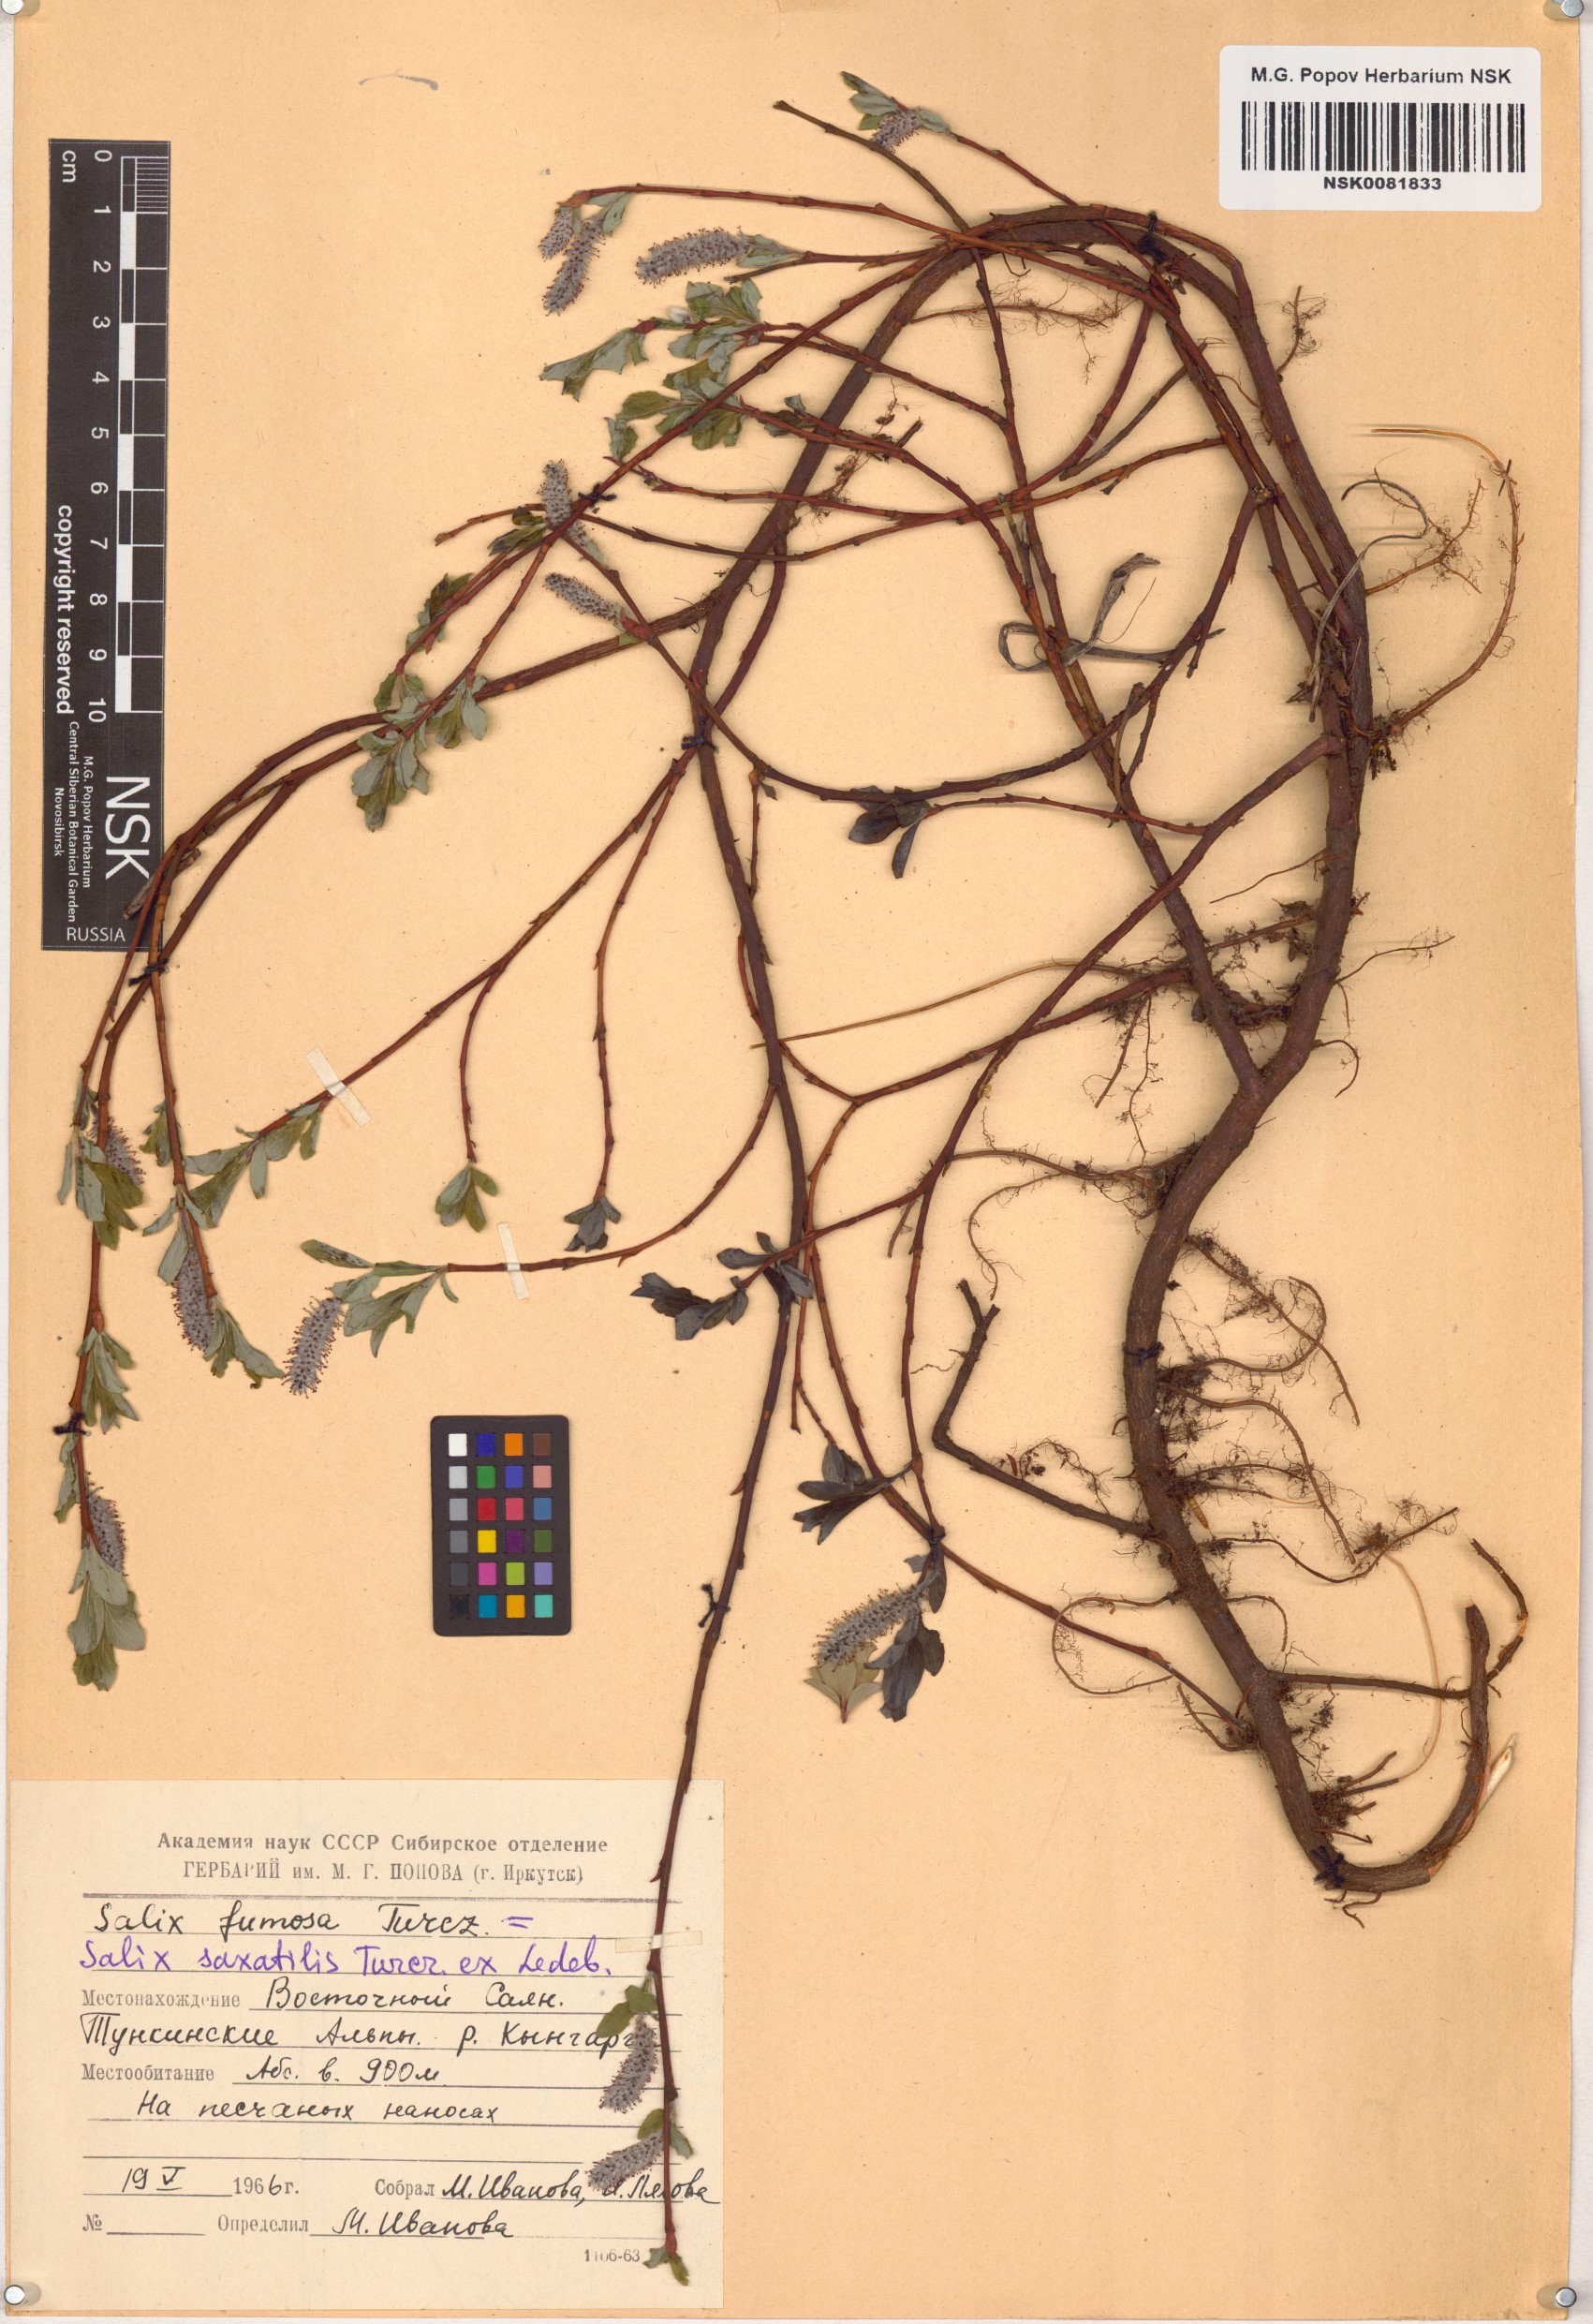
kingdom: Plantae
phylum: Tracheophyta
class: Magnoliopsida
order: Malpighiales
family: Salicaceae
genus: Salix
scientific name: Salix saxatilis
